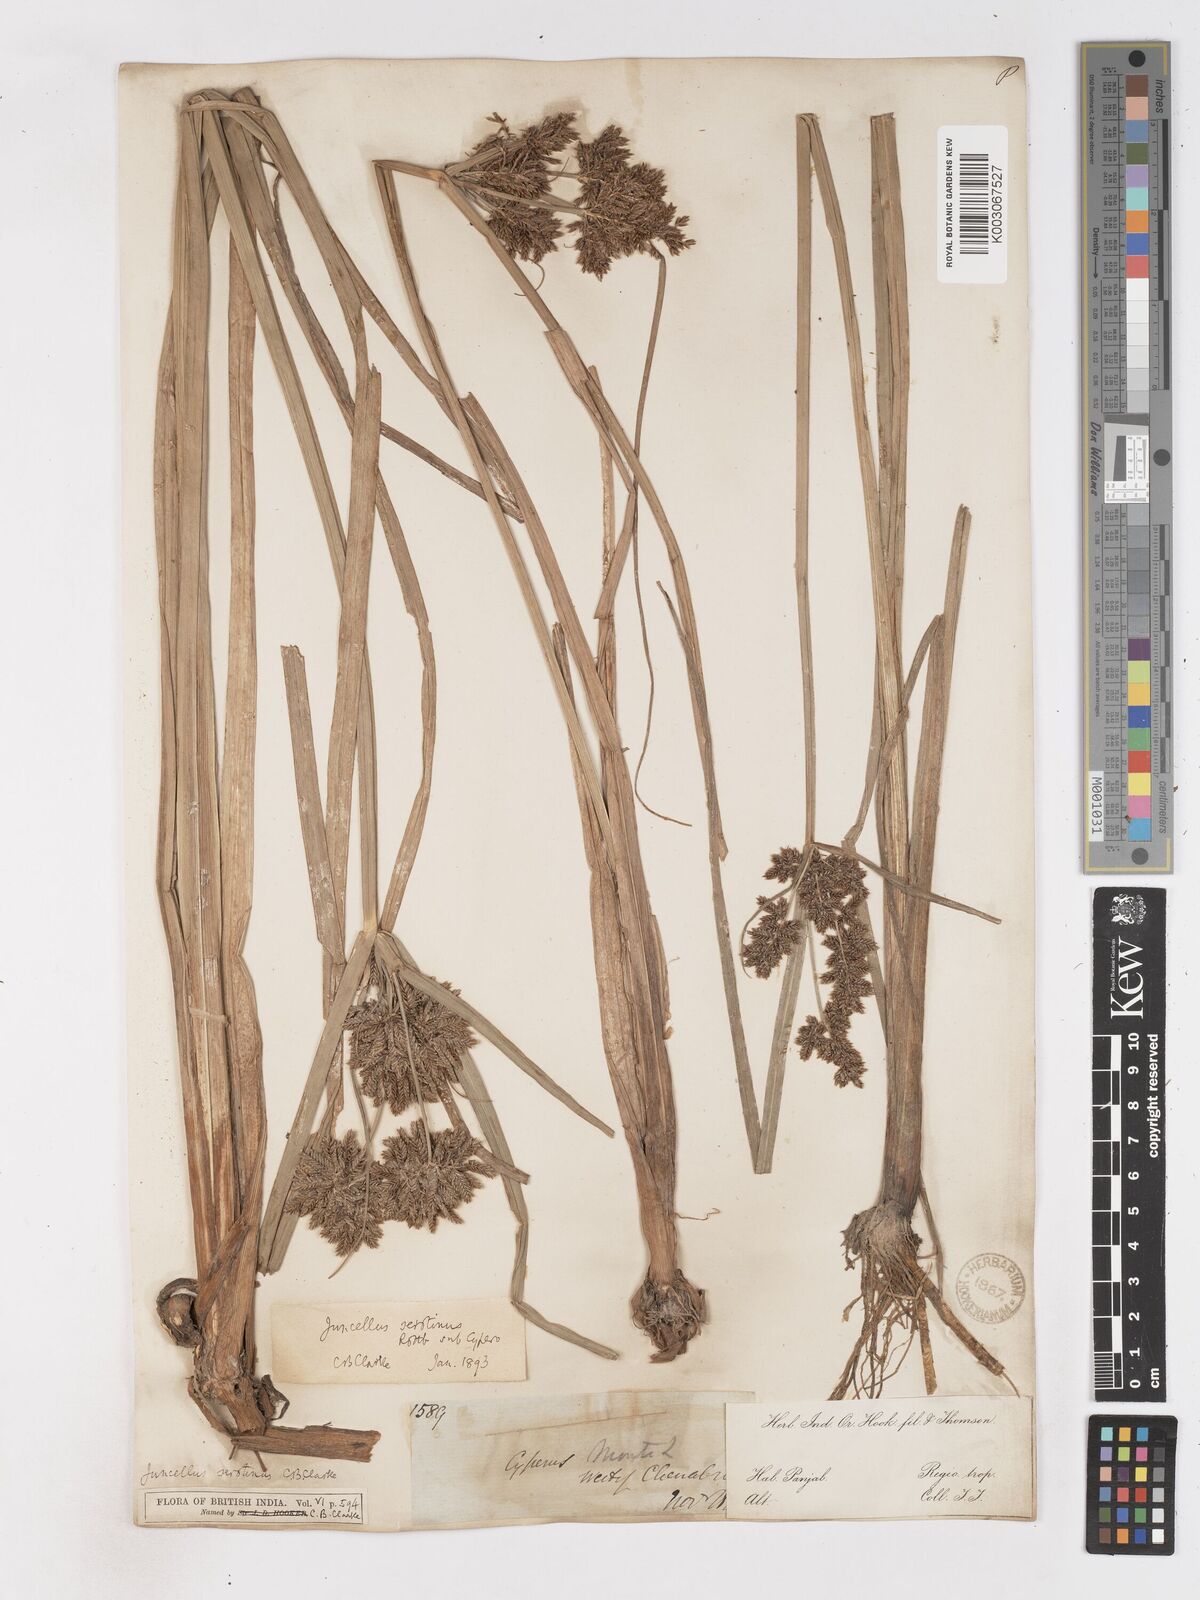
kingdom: Plantae
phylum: Tracheophyta
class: Liliopsida
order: Poales
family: Cyperaceae
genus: Cyperus
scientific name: Cyperus serotinus
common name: Tidalmarsh flatsedge
